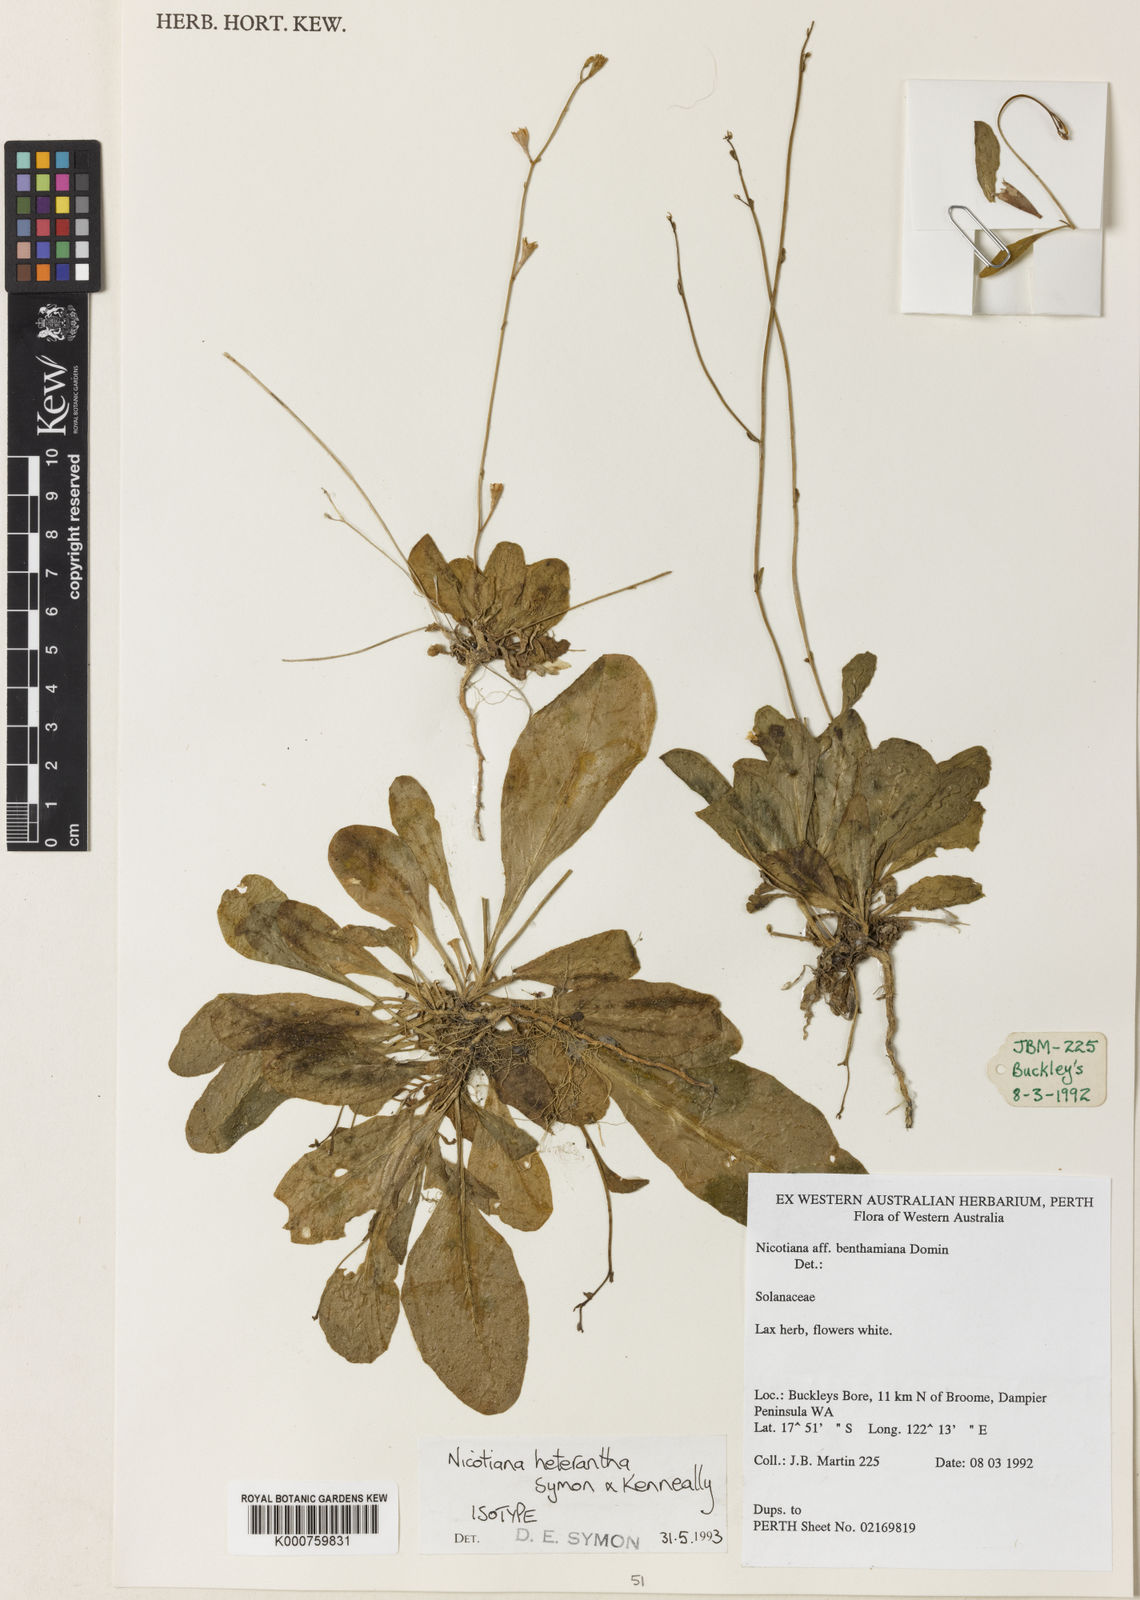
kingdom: Plantae
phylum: Tracheophyta
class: Magnoliopsida
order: Solanales
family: Solanaceae
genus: Nicotiana
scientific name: Nicotiana heterantha
